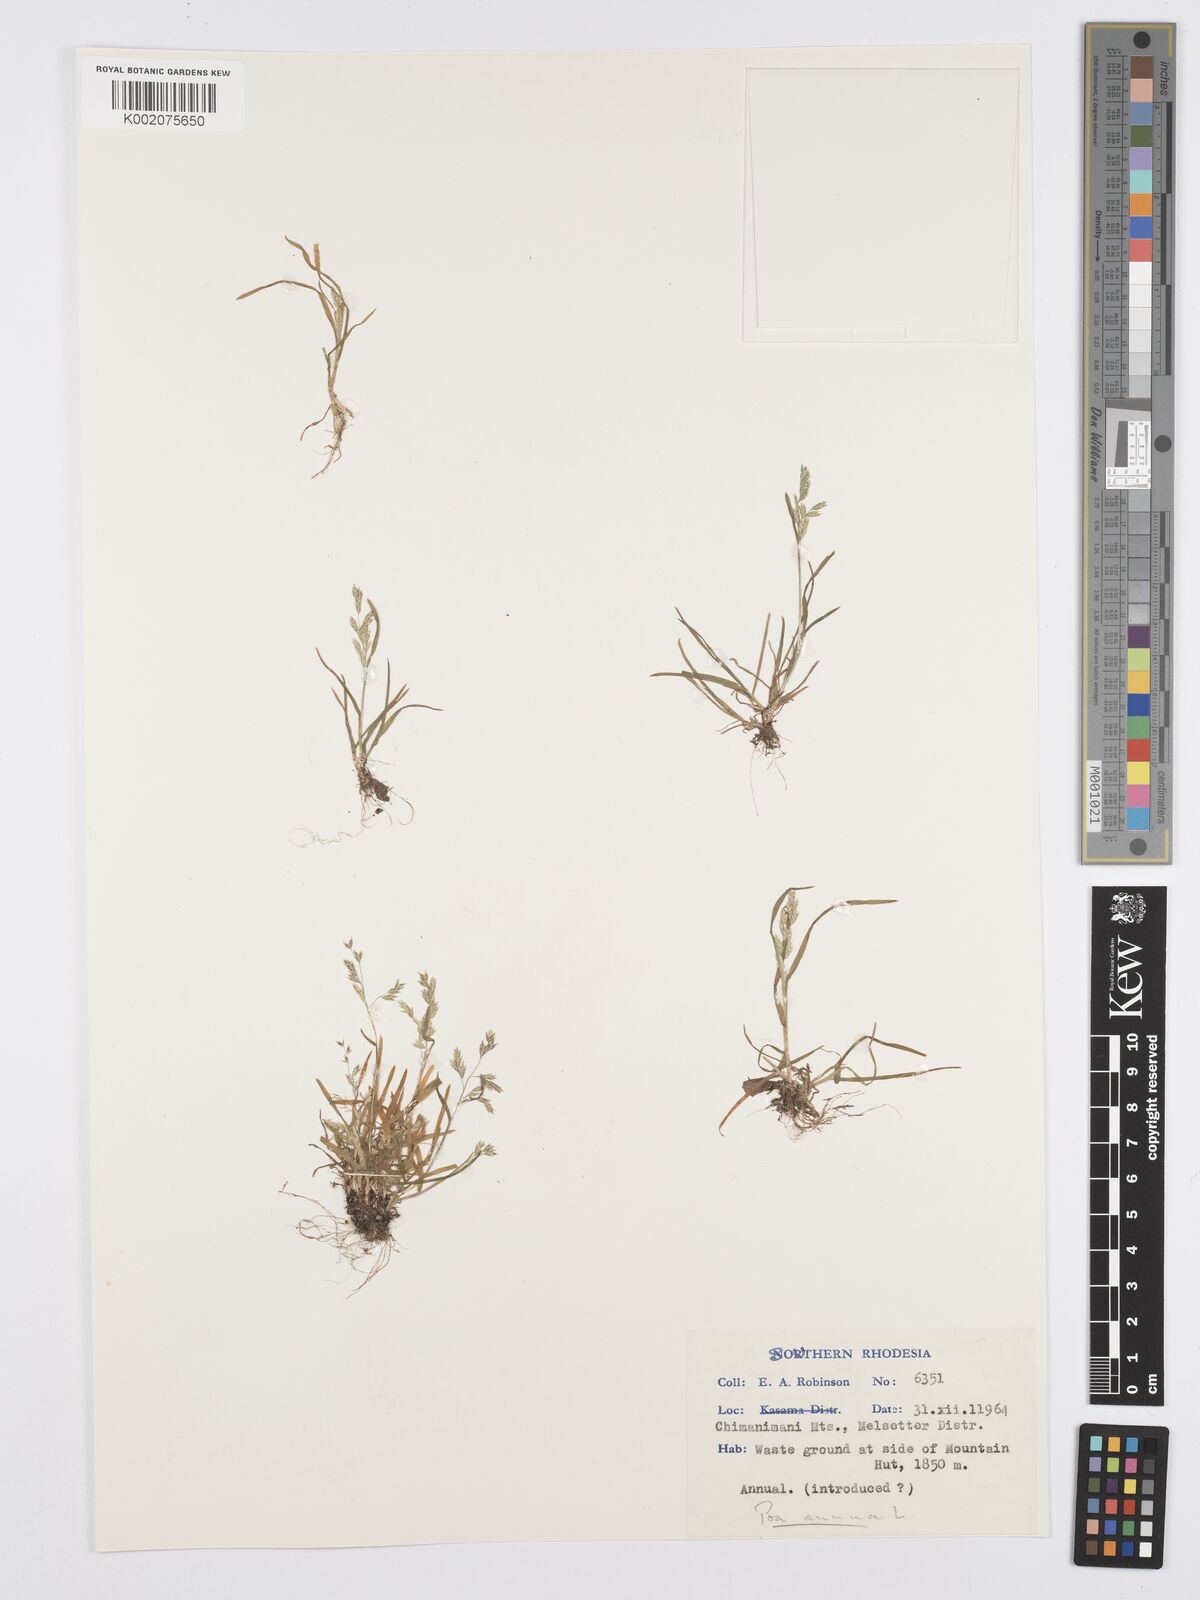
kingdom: Plantae
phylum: Tracheophyta
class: Liliopsida
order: Poales
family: Poaceae
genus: Poa
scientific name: Poa annua
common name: Annual bluegrass
